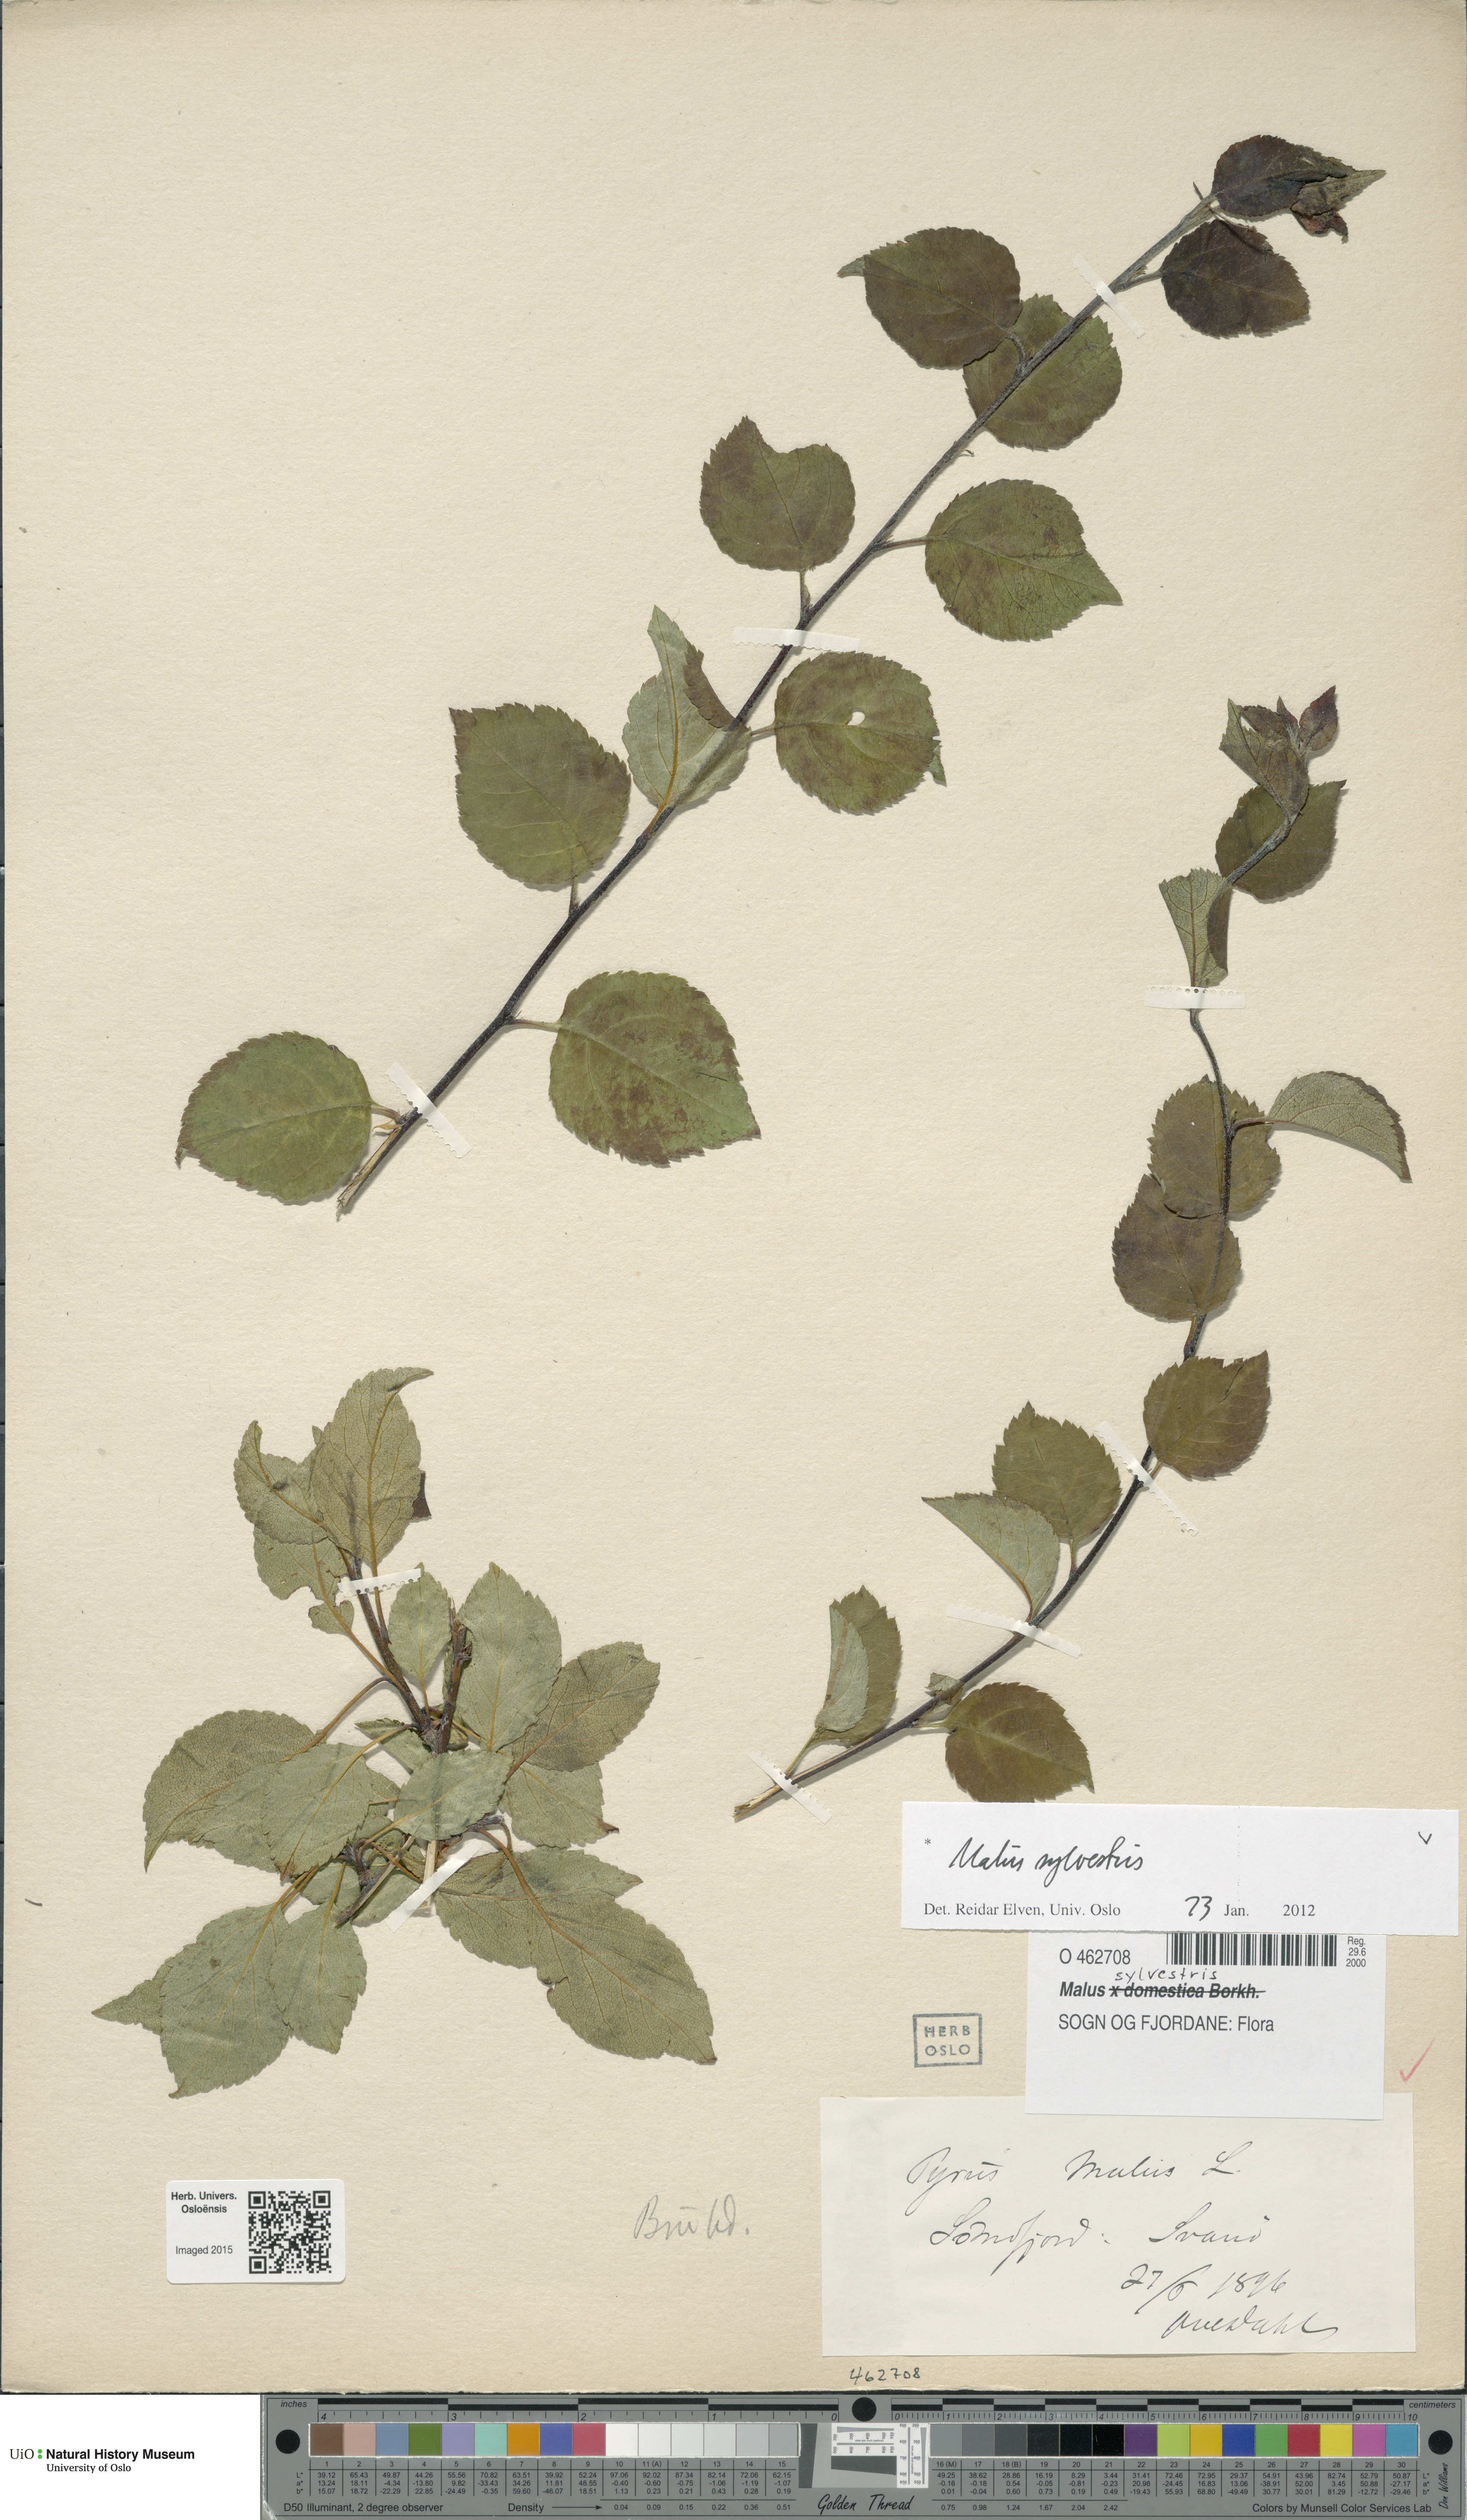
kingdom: Plantae
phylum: Tracheophyta
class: Magnoliopsida
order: Rosales
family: Rosaceae
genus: Malus
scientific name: Malus sylvestris
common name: Crab apple
